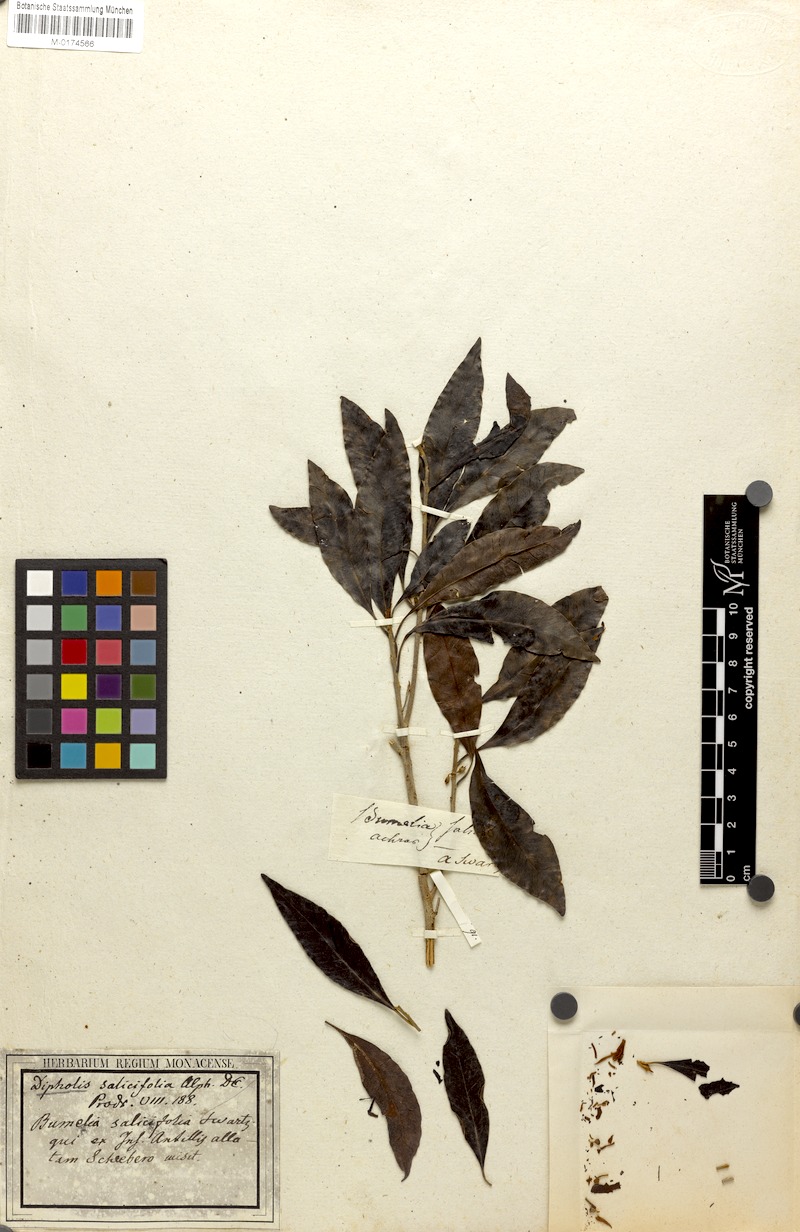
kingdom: Plantae
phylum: Tracheophyta
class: Magnoliopsida
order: Ericales
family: Sapotaceae
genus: Sideroxylon
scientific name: Sideroxylon salicifolium
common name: White bully
